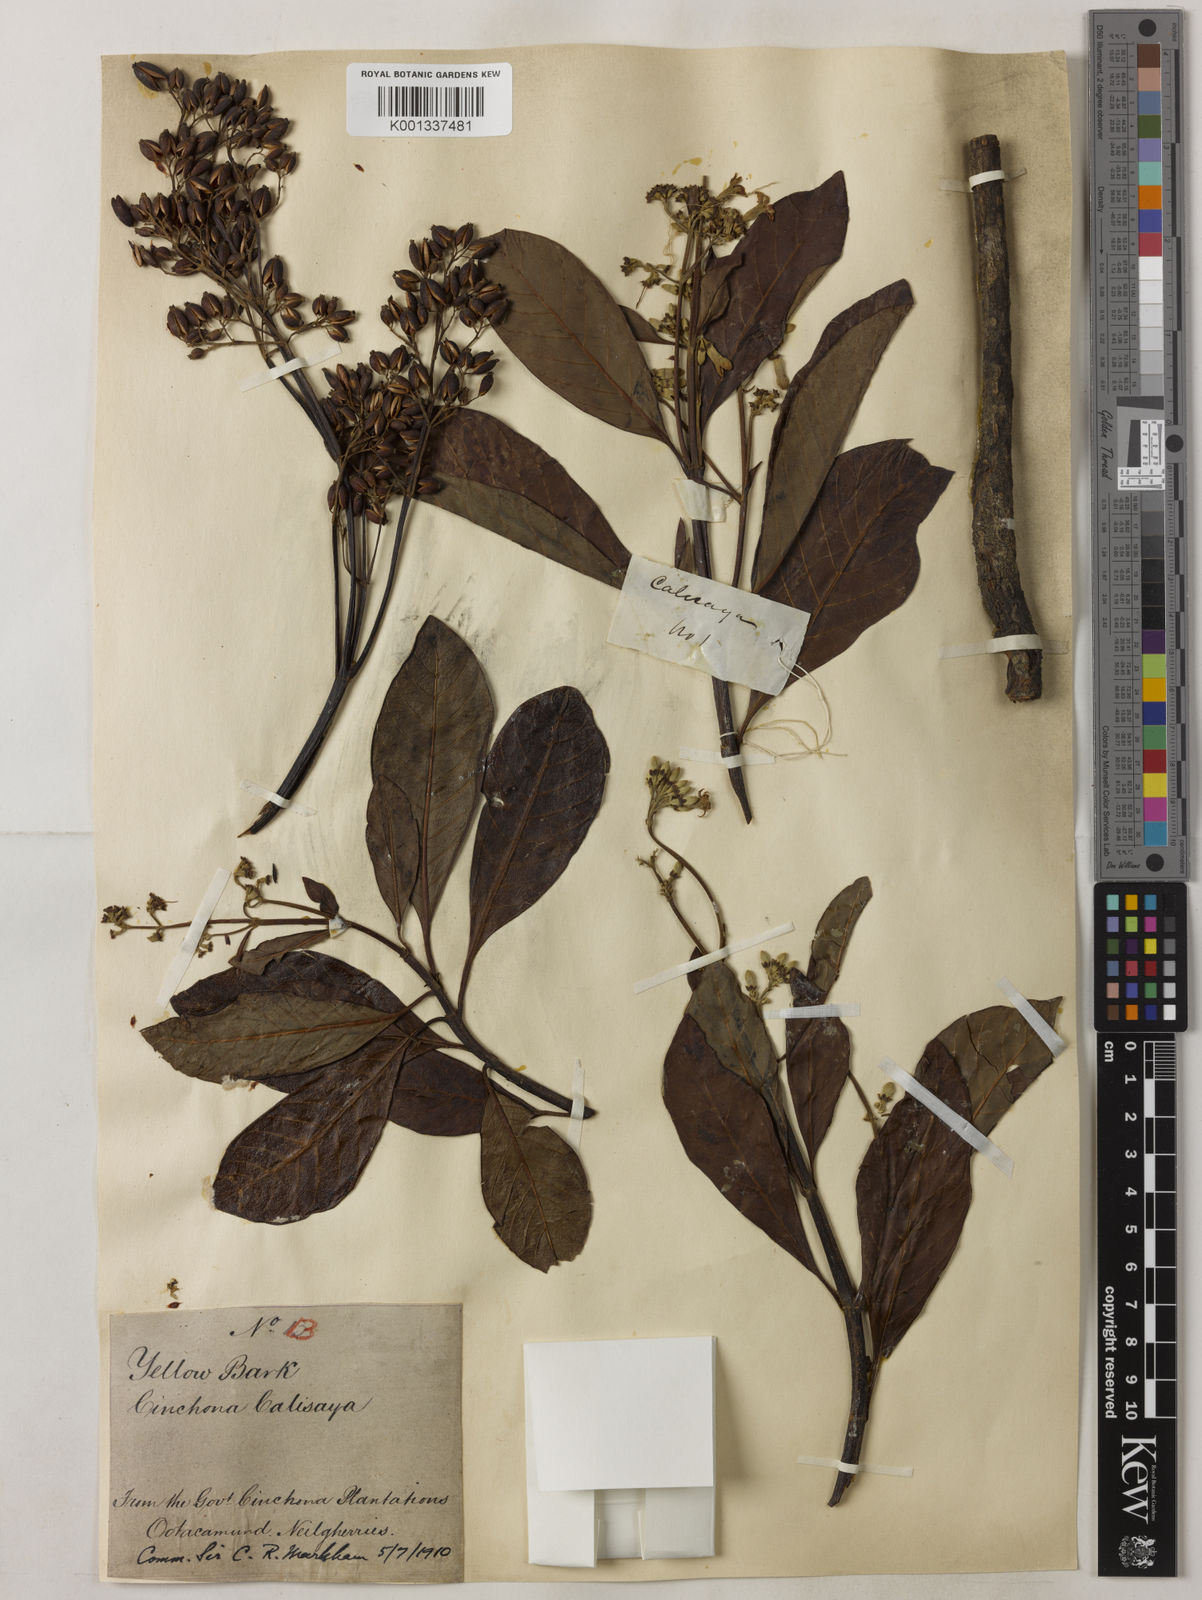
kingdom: Plantae
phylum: Tracheophyta
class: Magnoliopsida
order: Gentianales
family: Rubiaceae
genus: Cinchona
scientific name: Cinchona calisaya
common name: Ledgerbark
